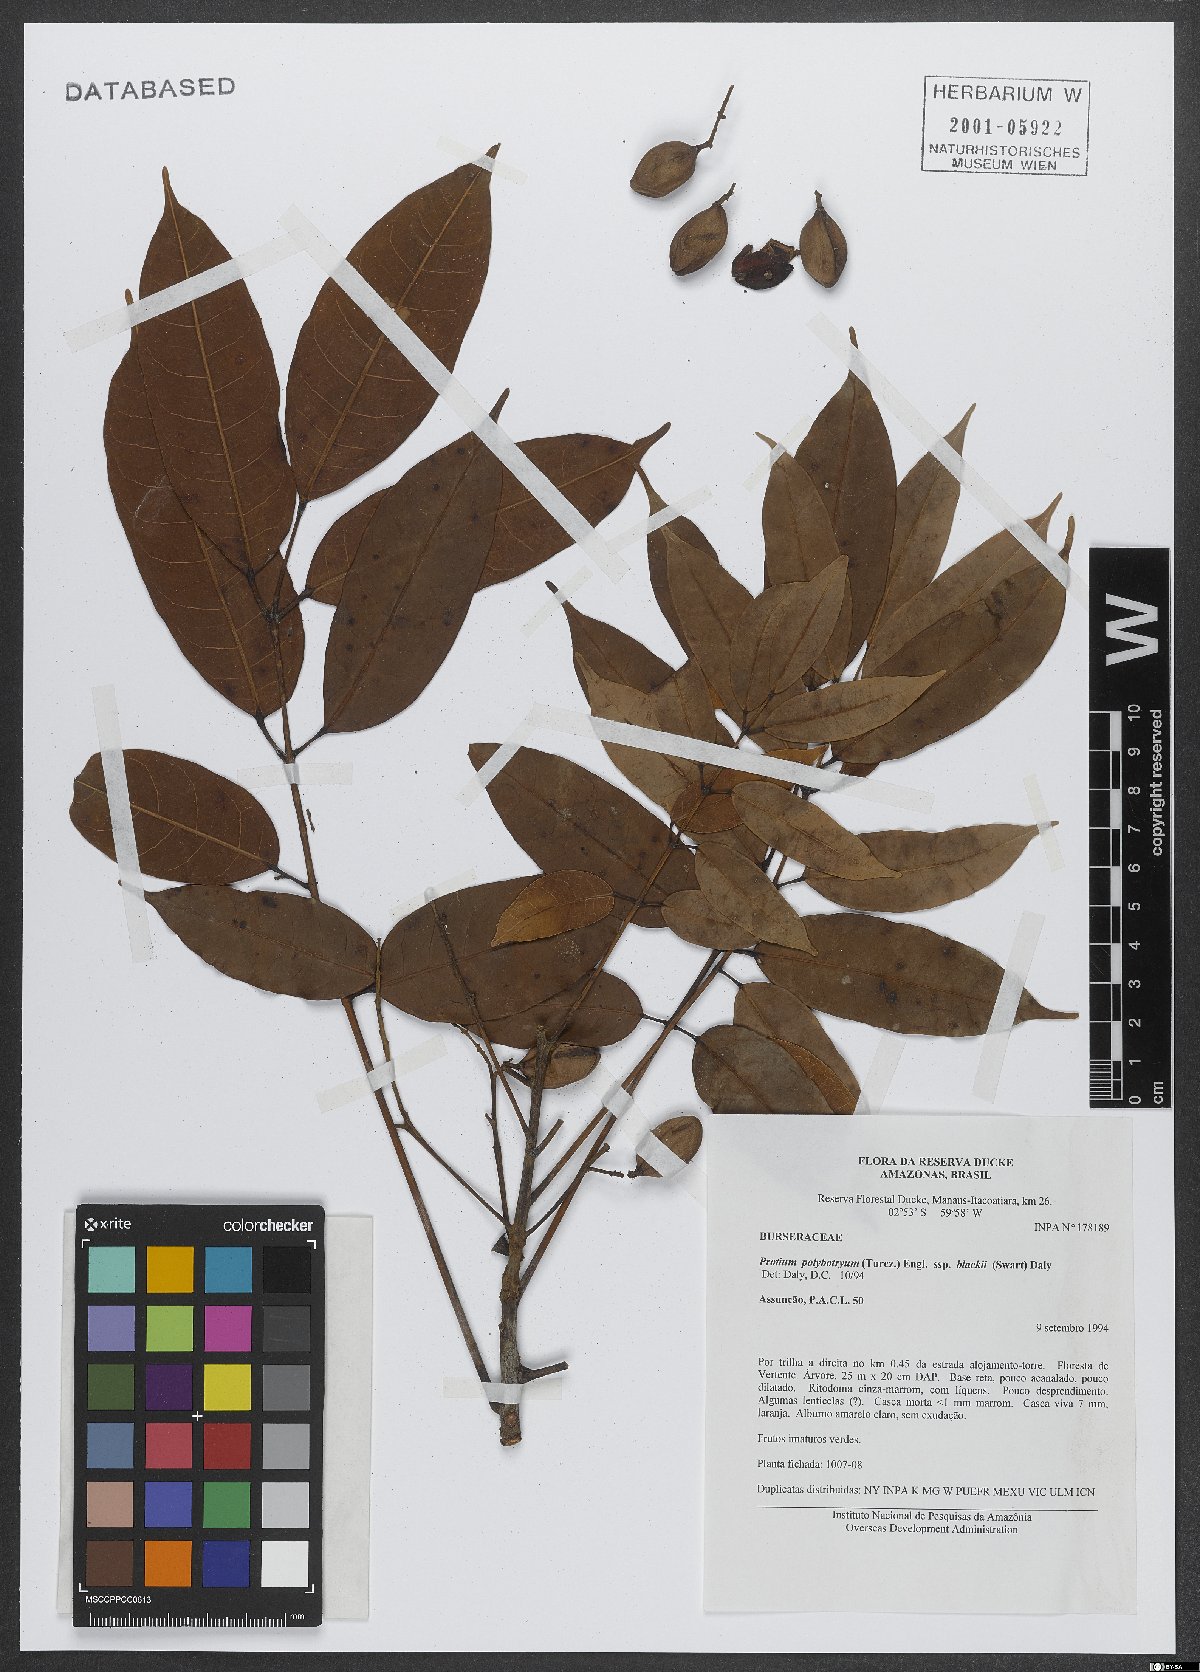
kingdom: Plantae
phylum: Tracheophyta
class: Magnoliopsida
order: Sapindales
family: Burseraceae
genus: Protium
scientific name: Protium polybotryum
